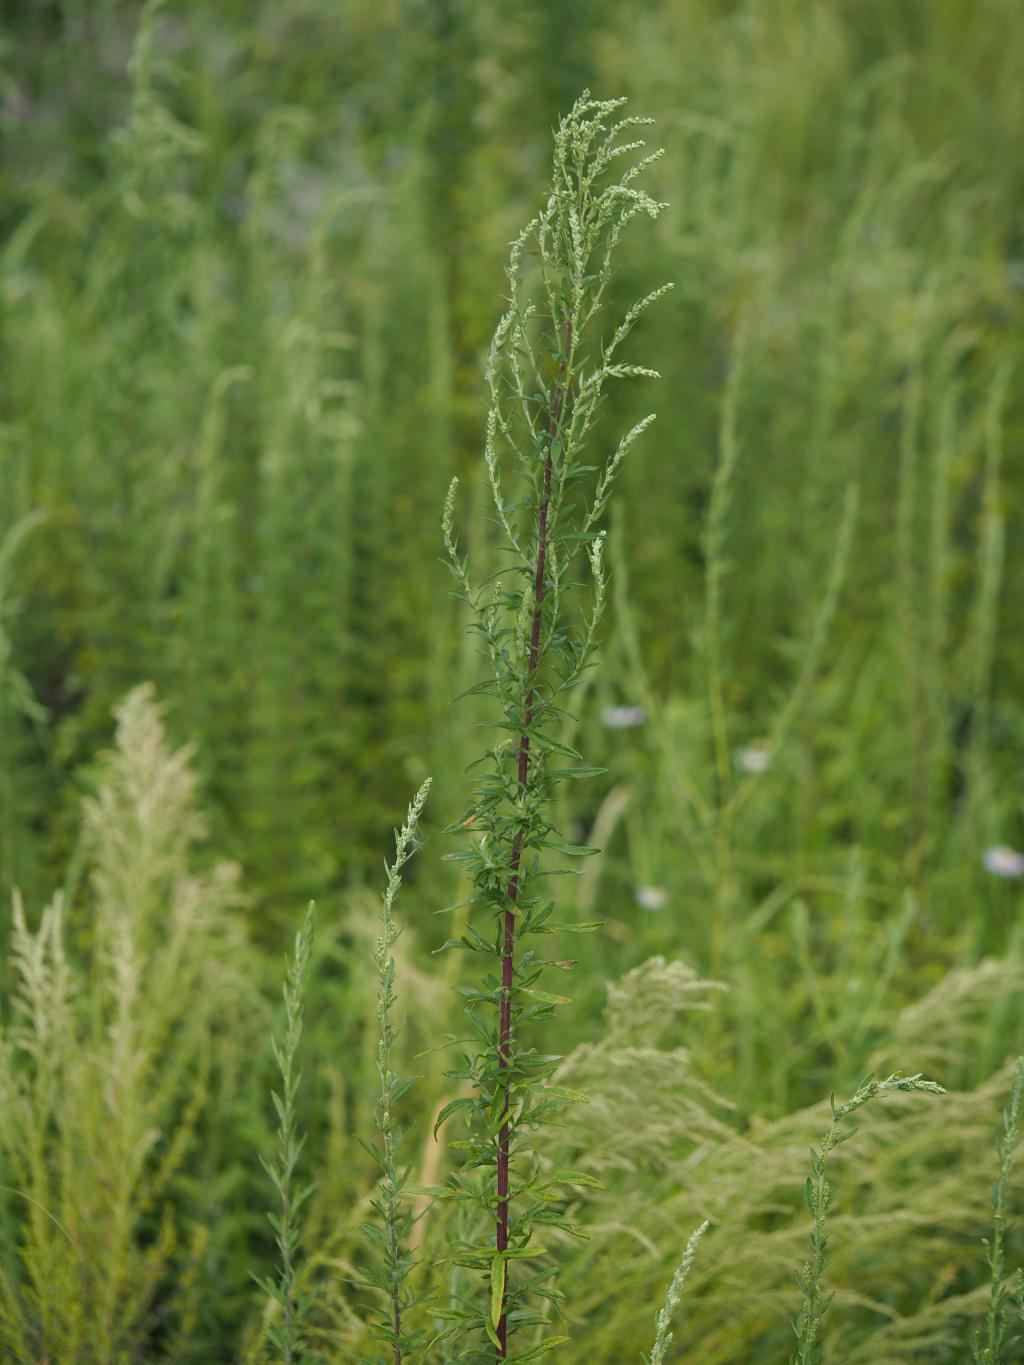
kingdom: Plantae
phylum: Tracheophyta
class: Magnoliopsida
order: Asterales
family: Asteraceae
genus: Artemisia
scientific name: Artemisia indica
